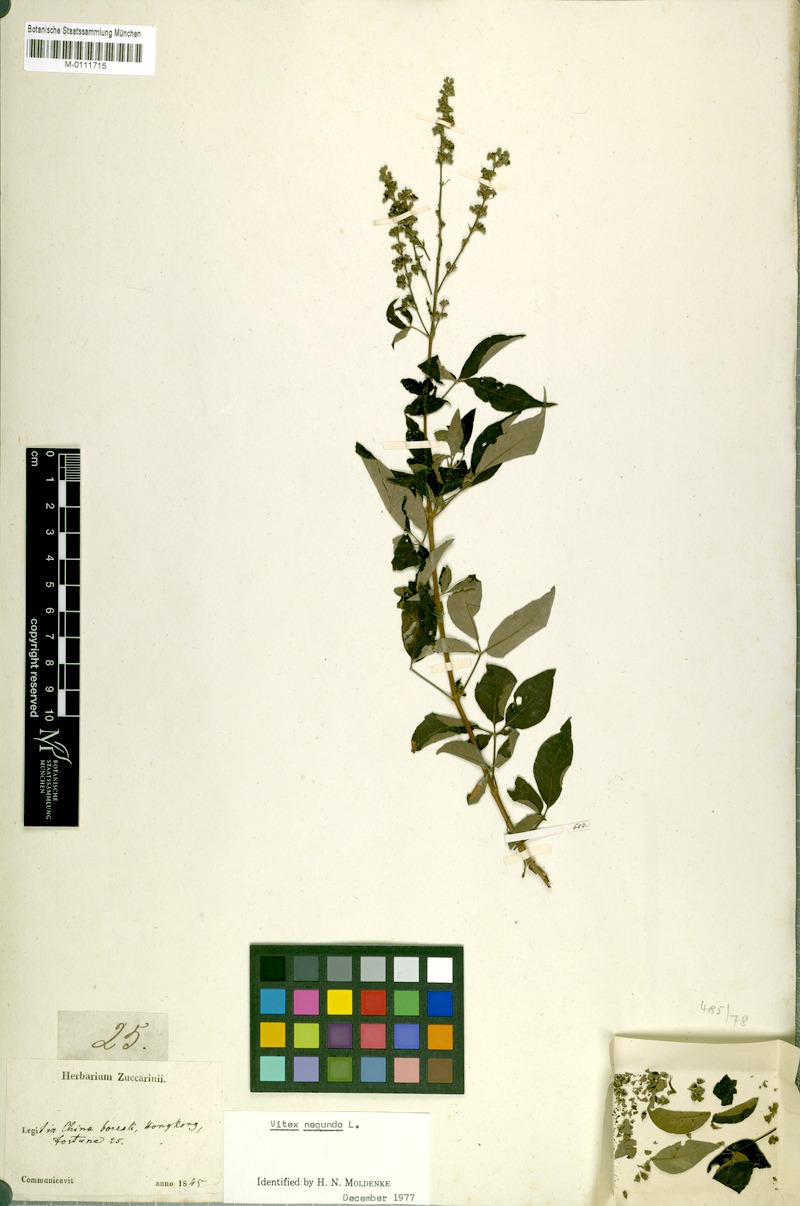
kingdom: Plantae
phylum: Tracheophyta
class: Magnoliopsida
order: Lamiales
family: Lamiaceae
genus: Vitex
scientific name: Vitex negundo
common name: Chinese chastetree
